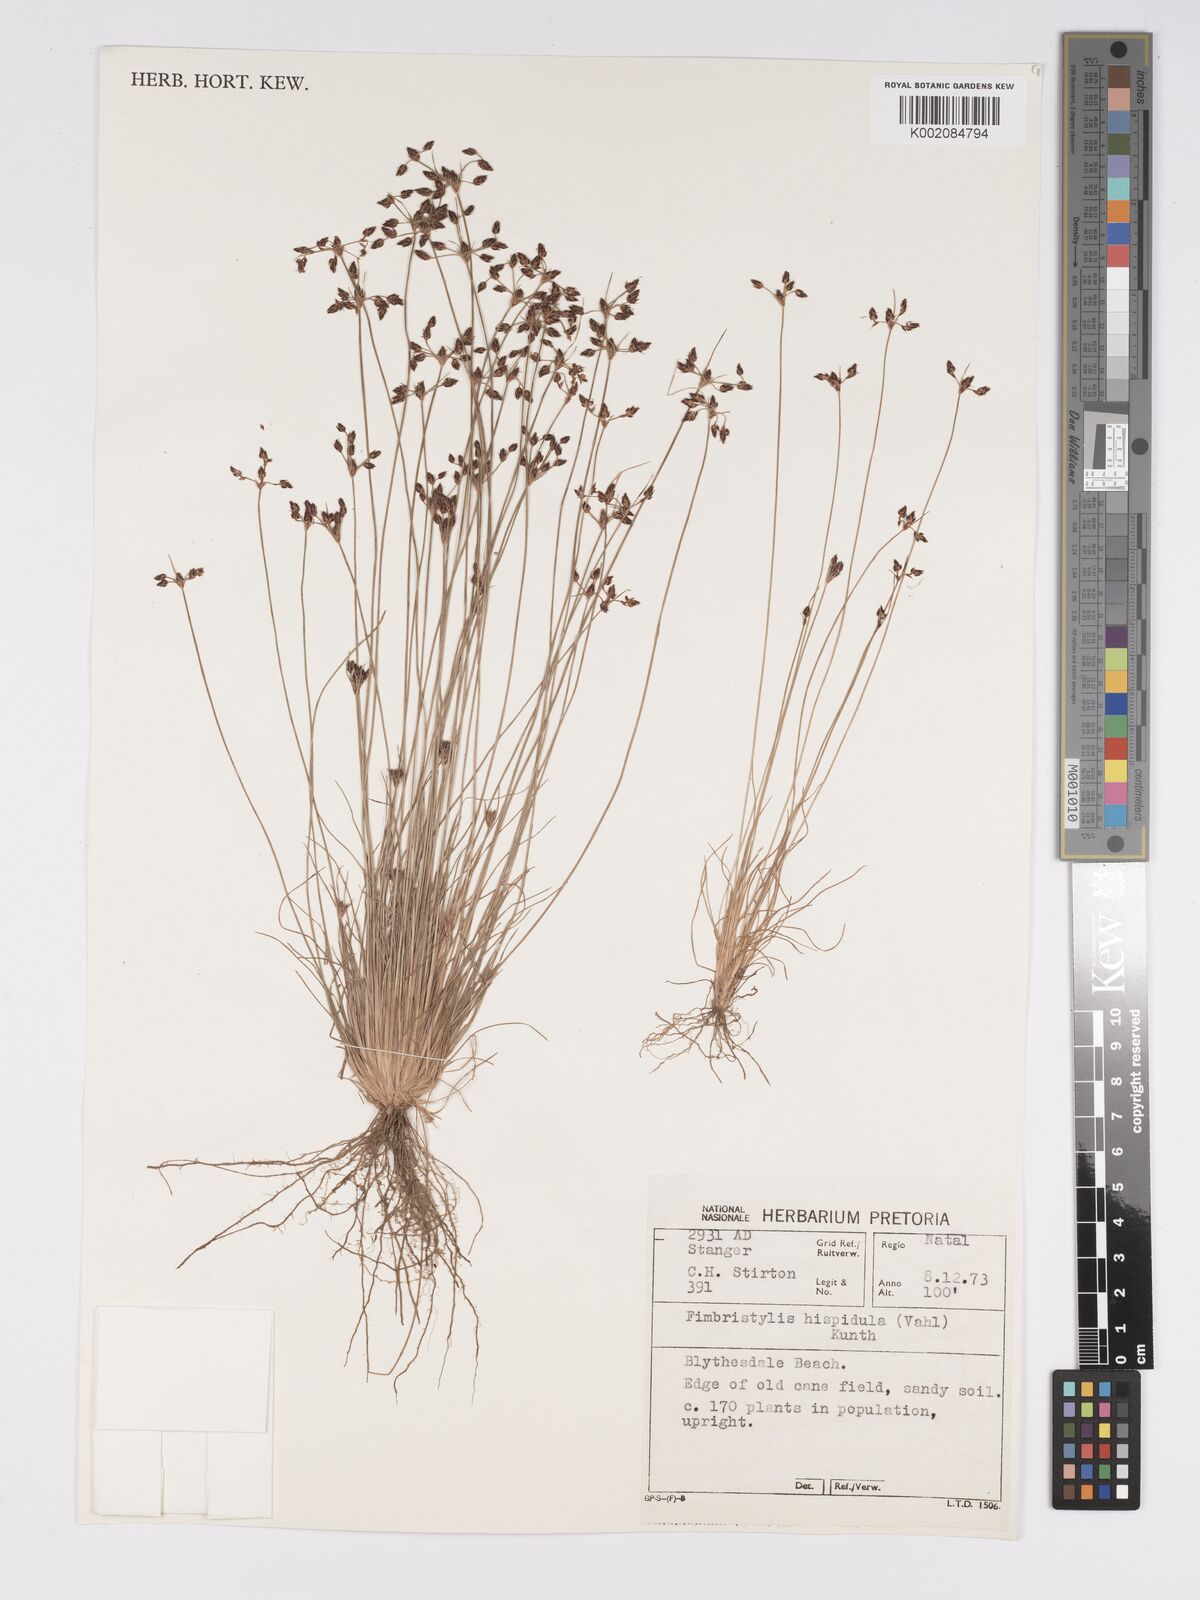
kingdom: Plantae
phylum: Tracheophyta
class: Liliopsida
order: Poales
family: Cyperaceae
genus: Bulbostylis
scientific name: Bulbostylis
